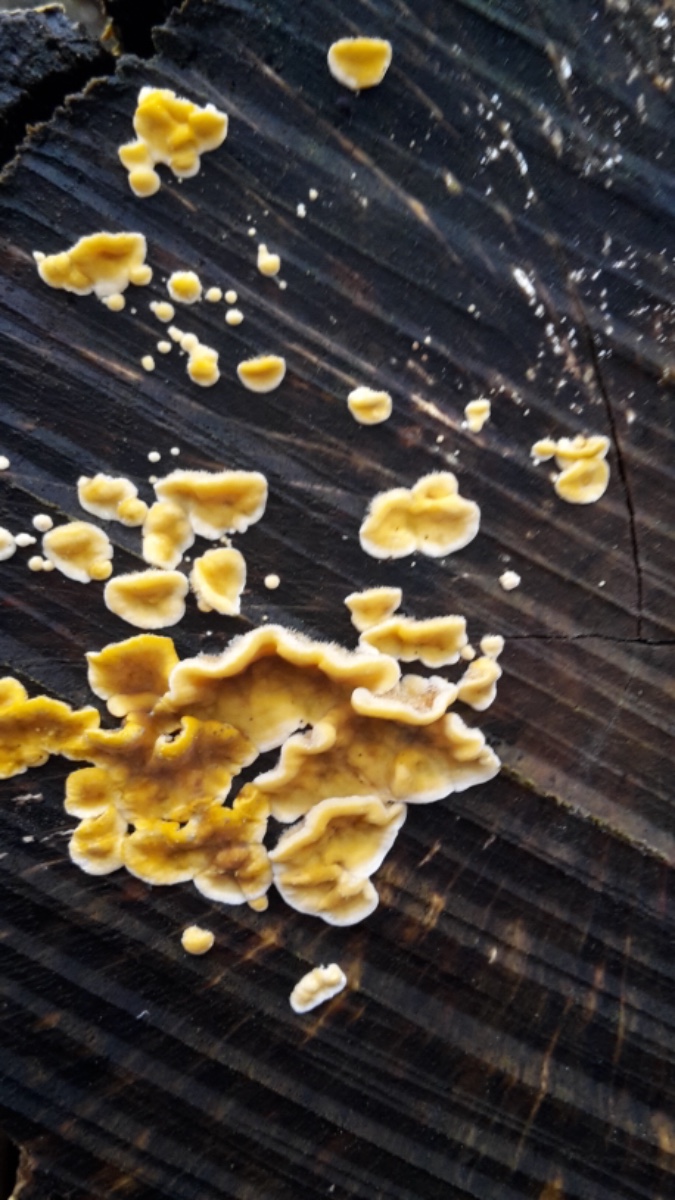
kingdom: Fungi
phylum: Basidiomycota
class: Agaricomycetes
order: Russulales
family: Stereaceae
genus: Stereum
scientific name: Stereum hirsutum
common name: håret lædersvamp
